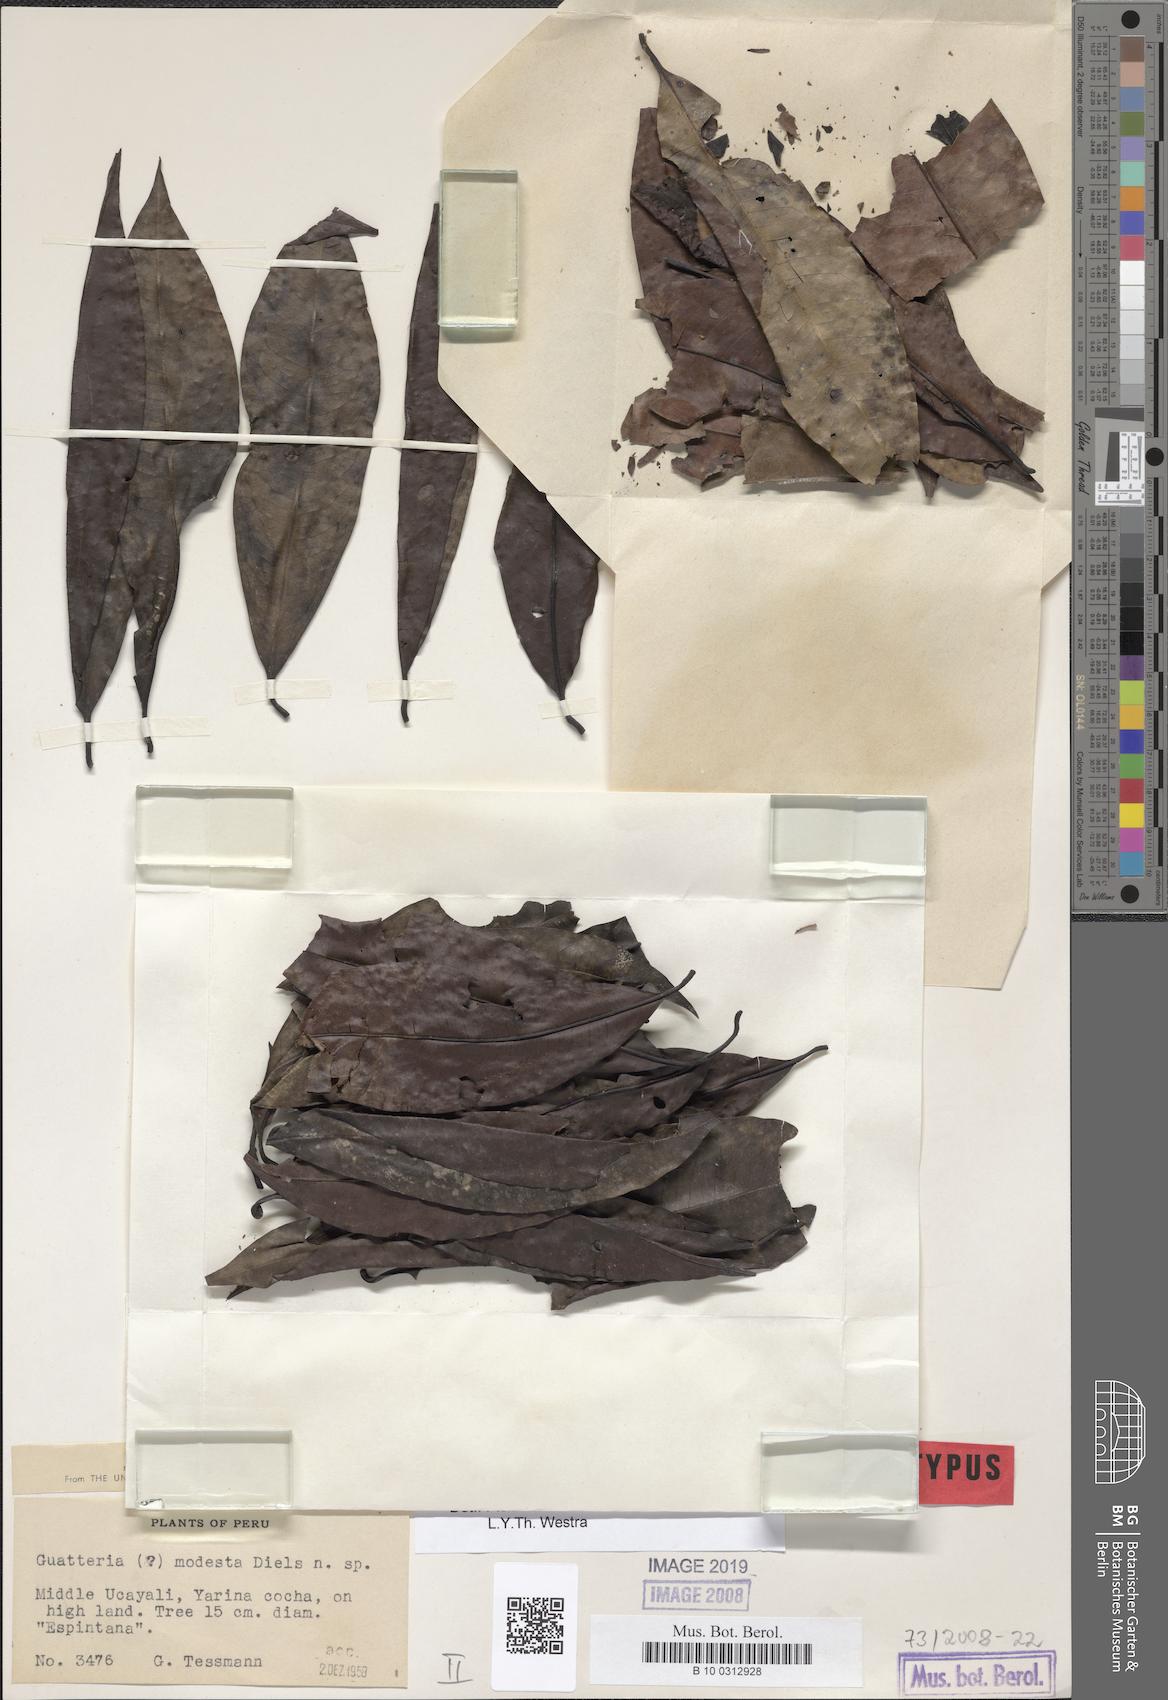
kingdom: Plantae
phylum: Tracheophyta
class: Magnoliopsida
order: Magnoliales
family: Annonaceae
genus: Guatteria
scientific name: Guatteria modesta
